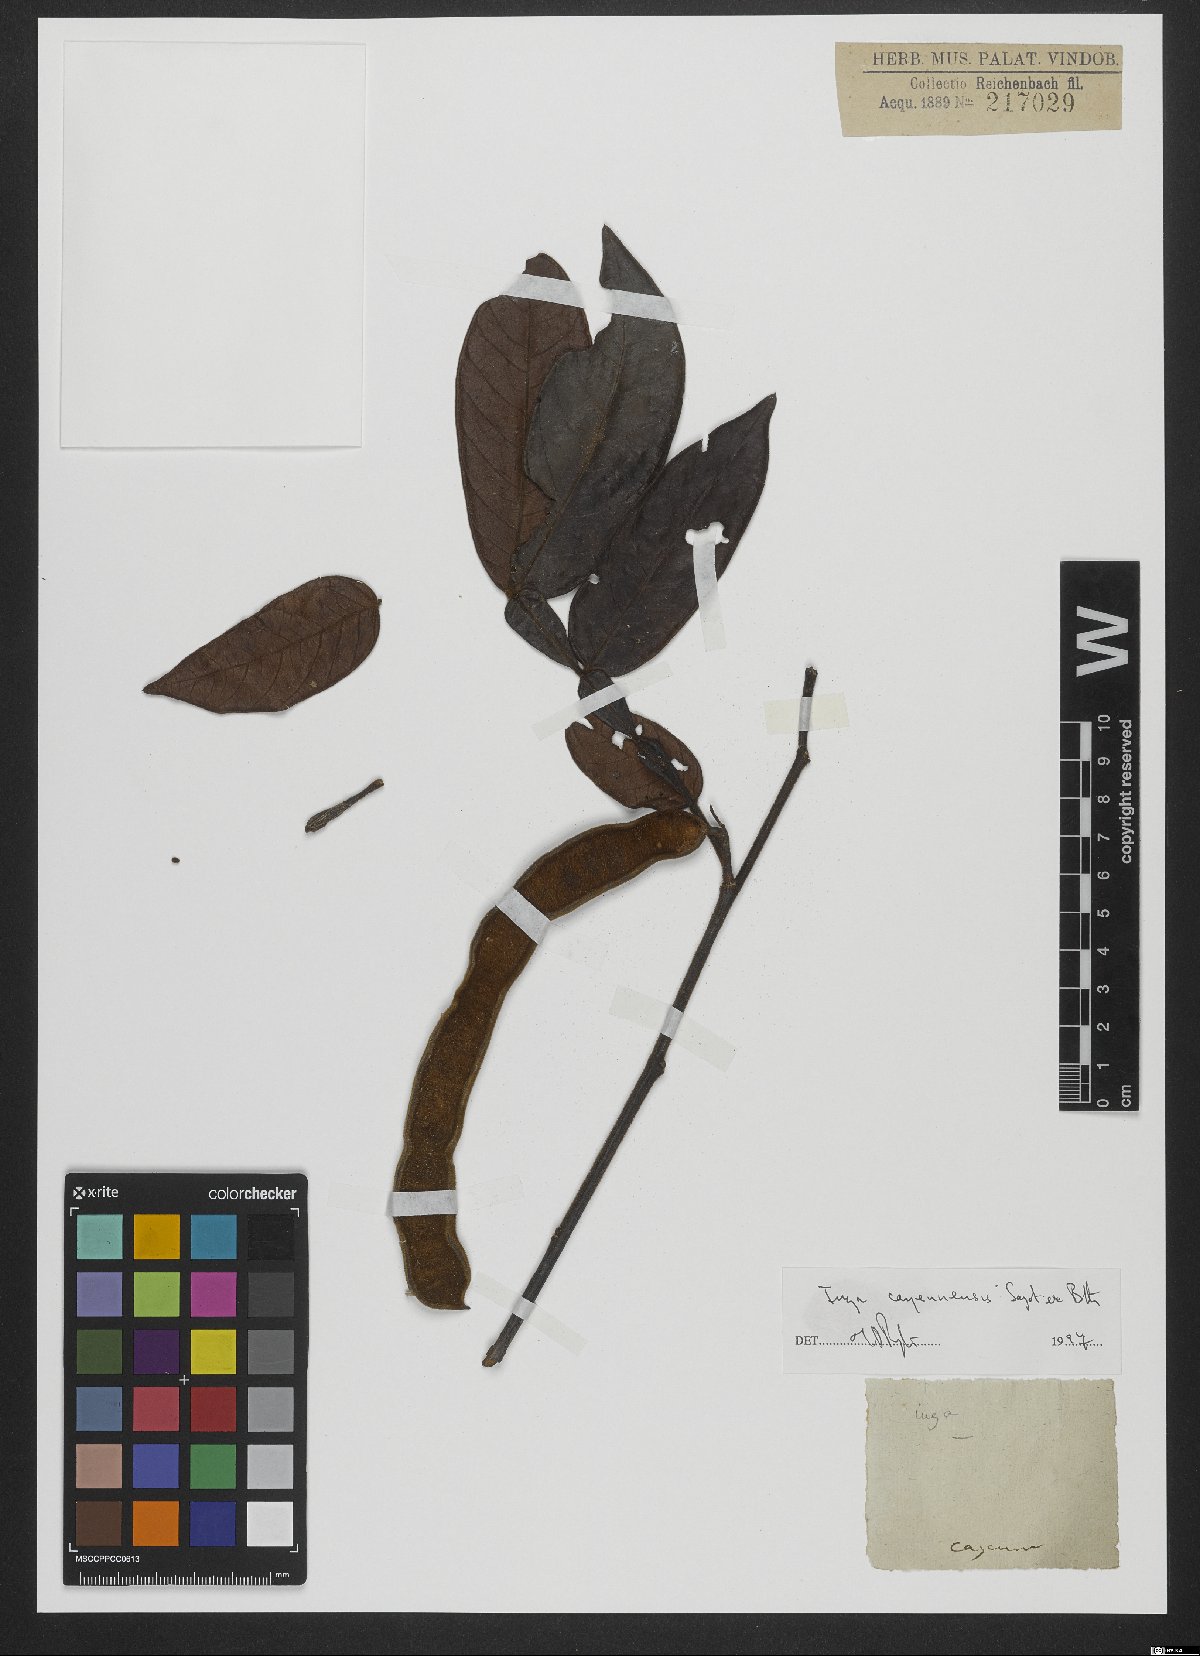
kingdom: Plantae
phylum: Tracheophyta
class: Magnoliopsida
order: Fabales
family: Fabaceae
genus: Inga
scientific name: Inga cayennensis
